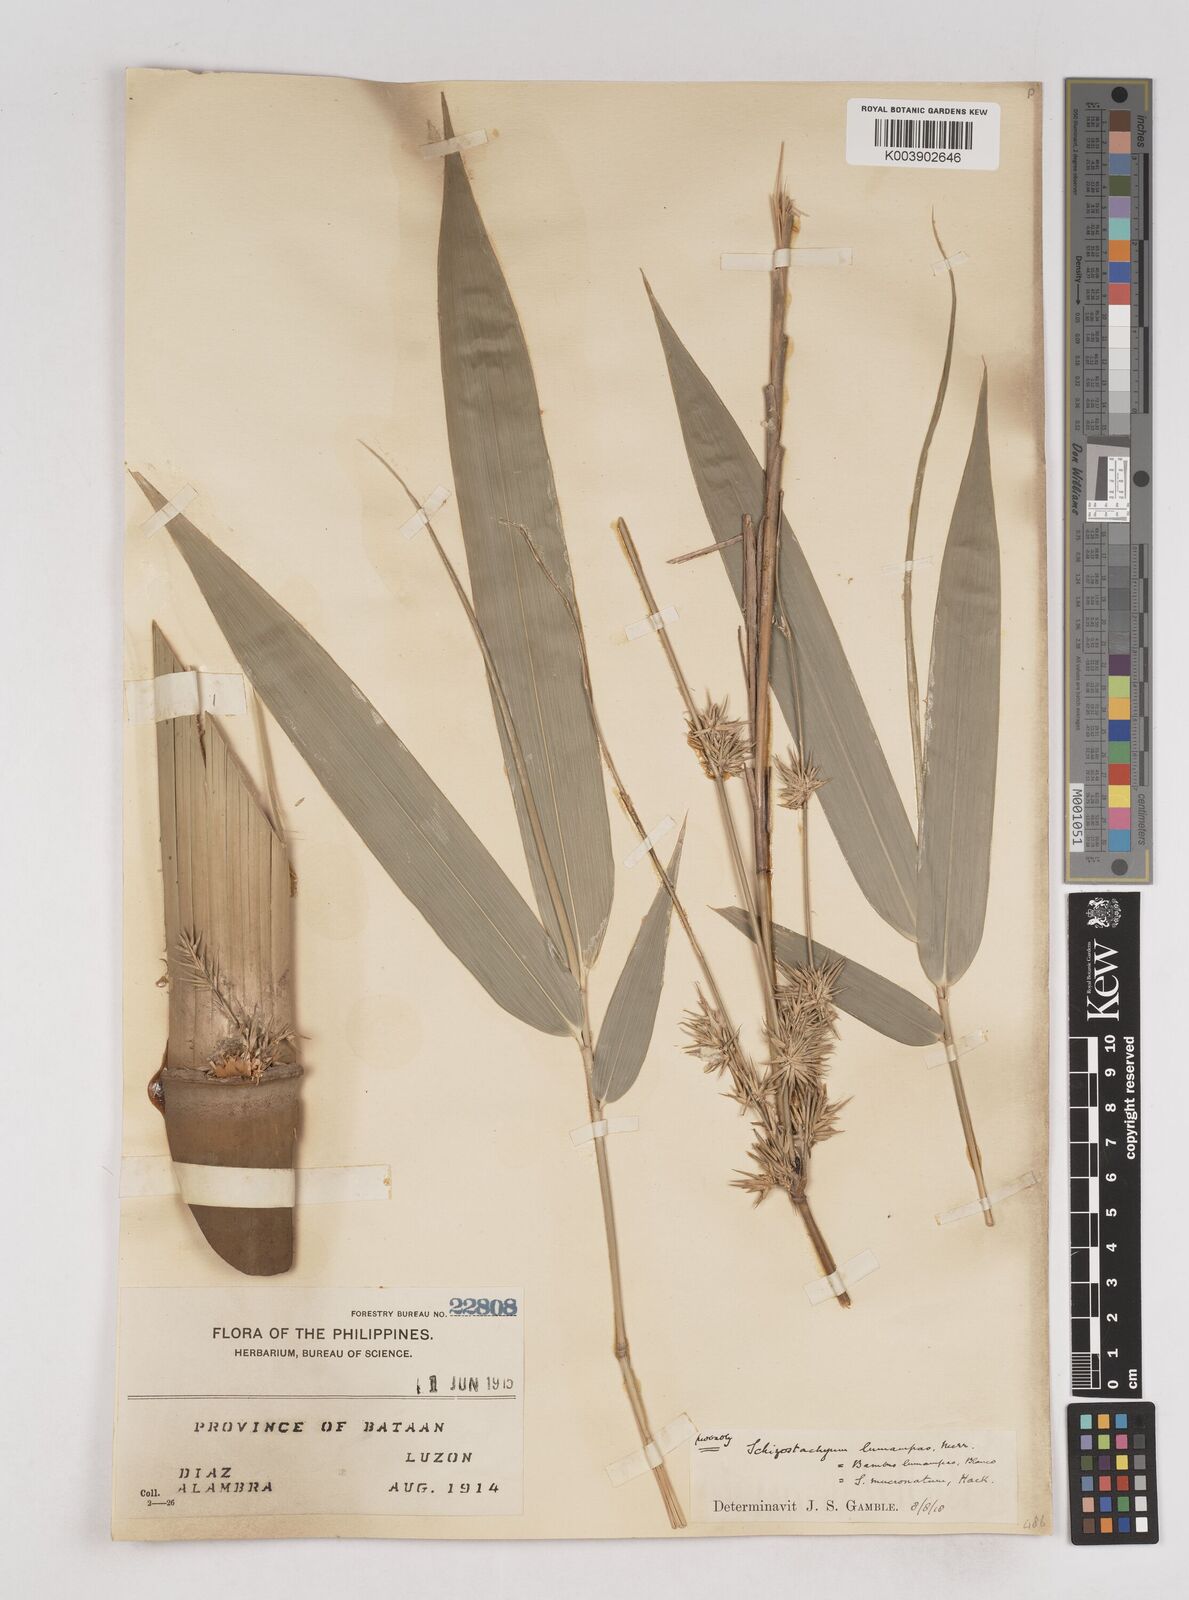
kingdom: Plantae
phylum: Tracheophyta
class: Liliopsida
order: Poales
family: Poaceae
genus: Schizostachyum
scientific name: Schizostachyum lumampao
